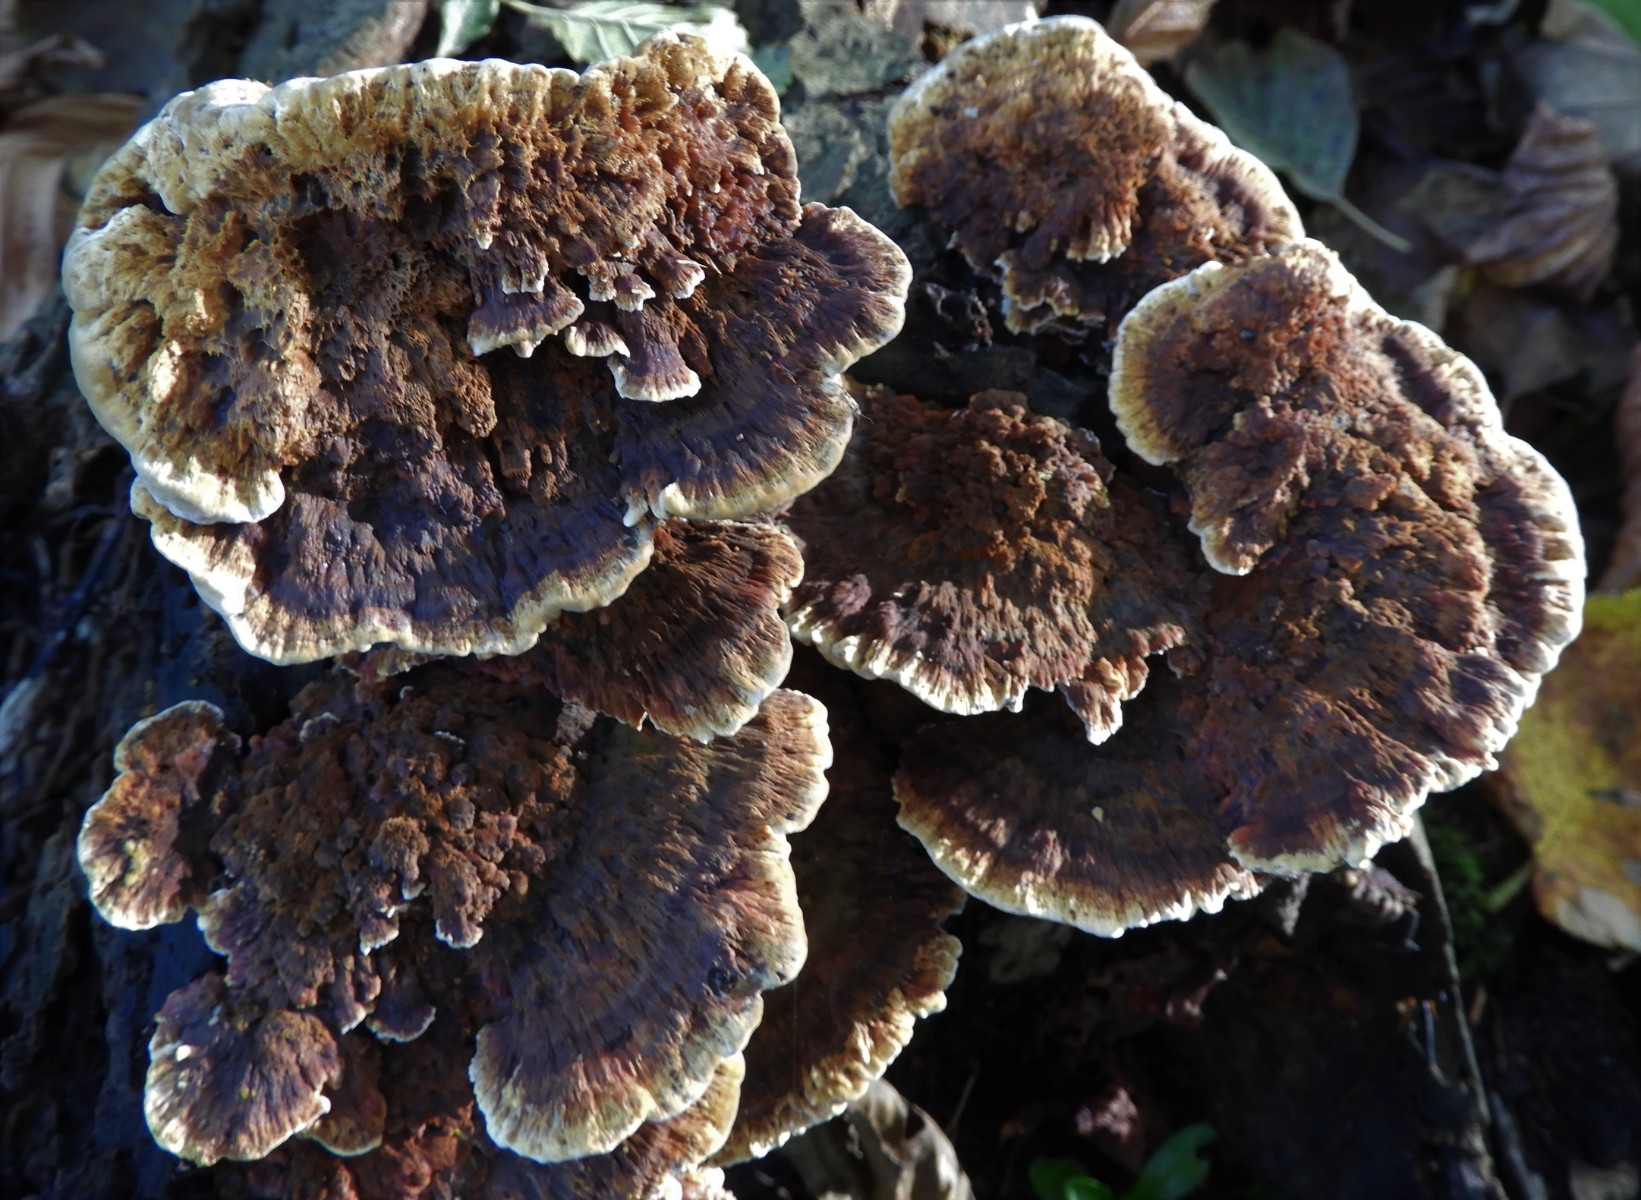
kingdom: Fungi
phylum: Basidiomycota
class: Agaricomycetes
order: Hymenochaetales
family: Hymenochaetaceae
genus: Mensularia
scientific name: Mensularia nodulosa
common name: bøge-spejlporesvamp
